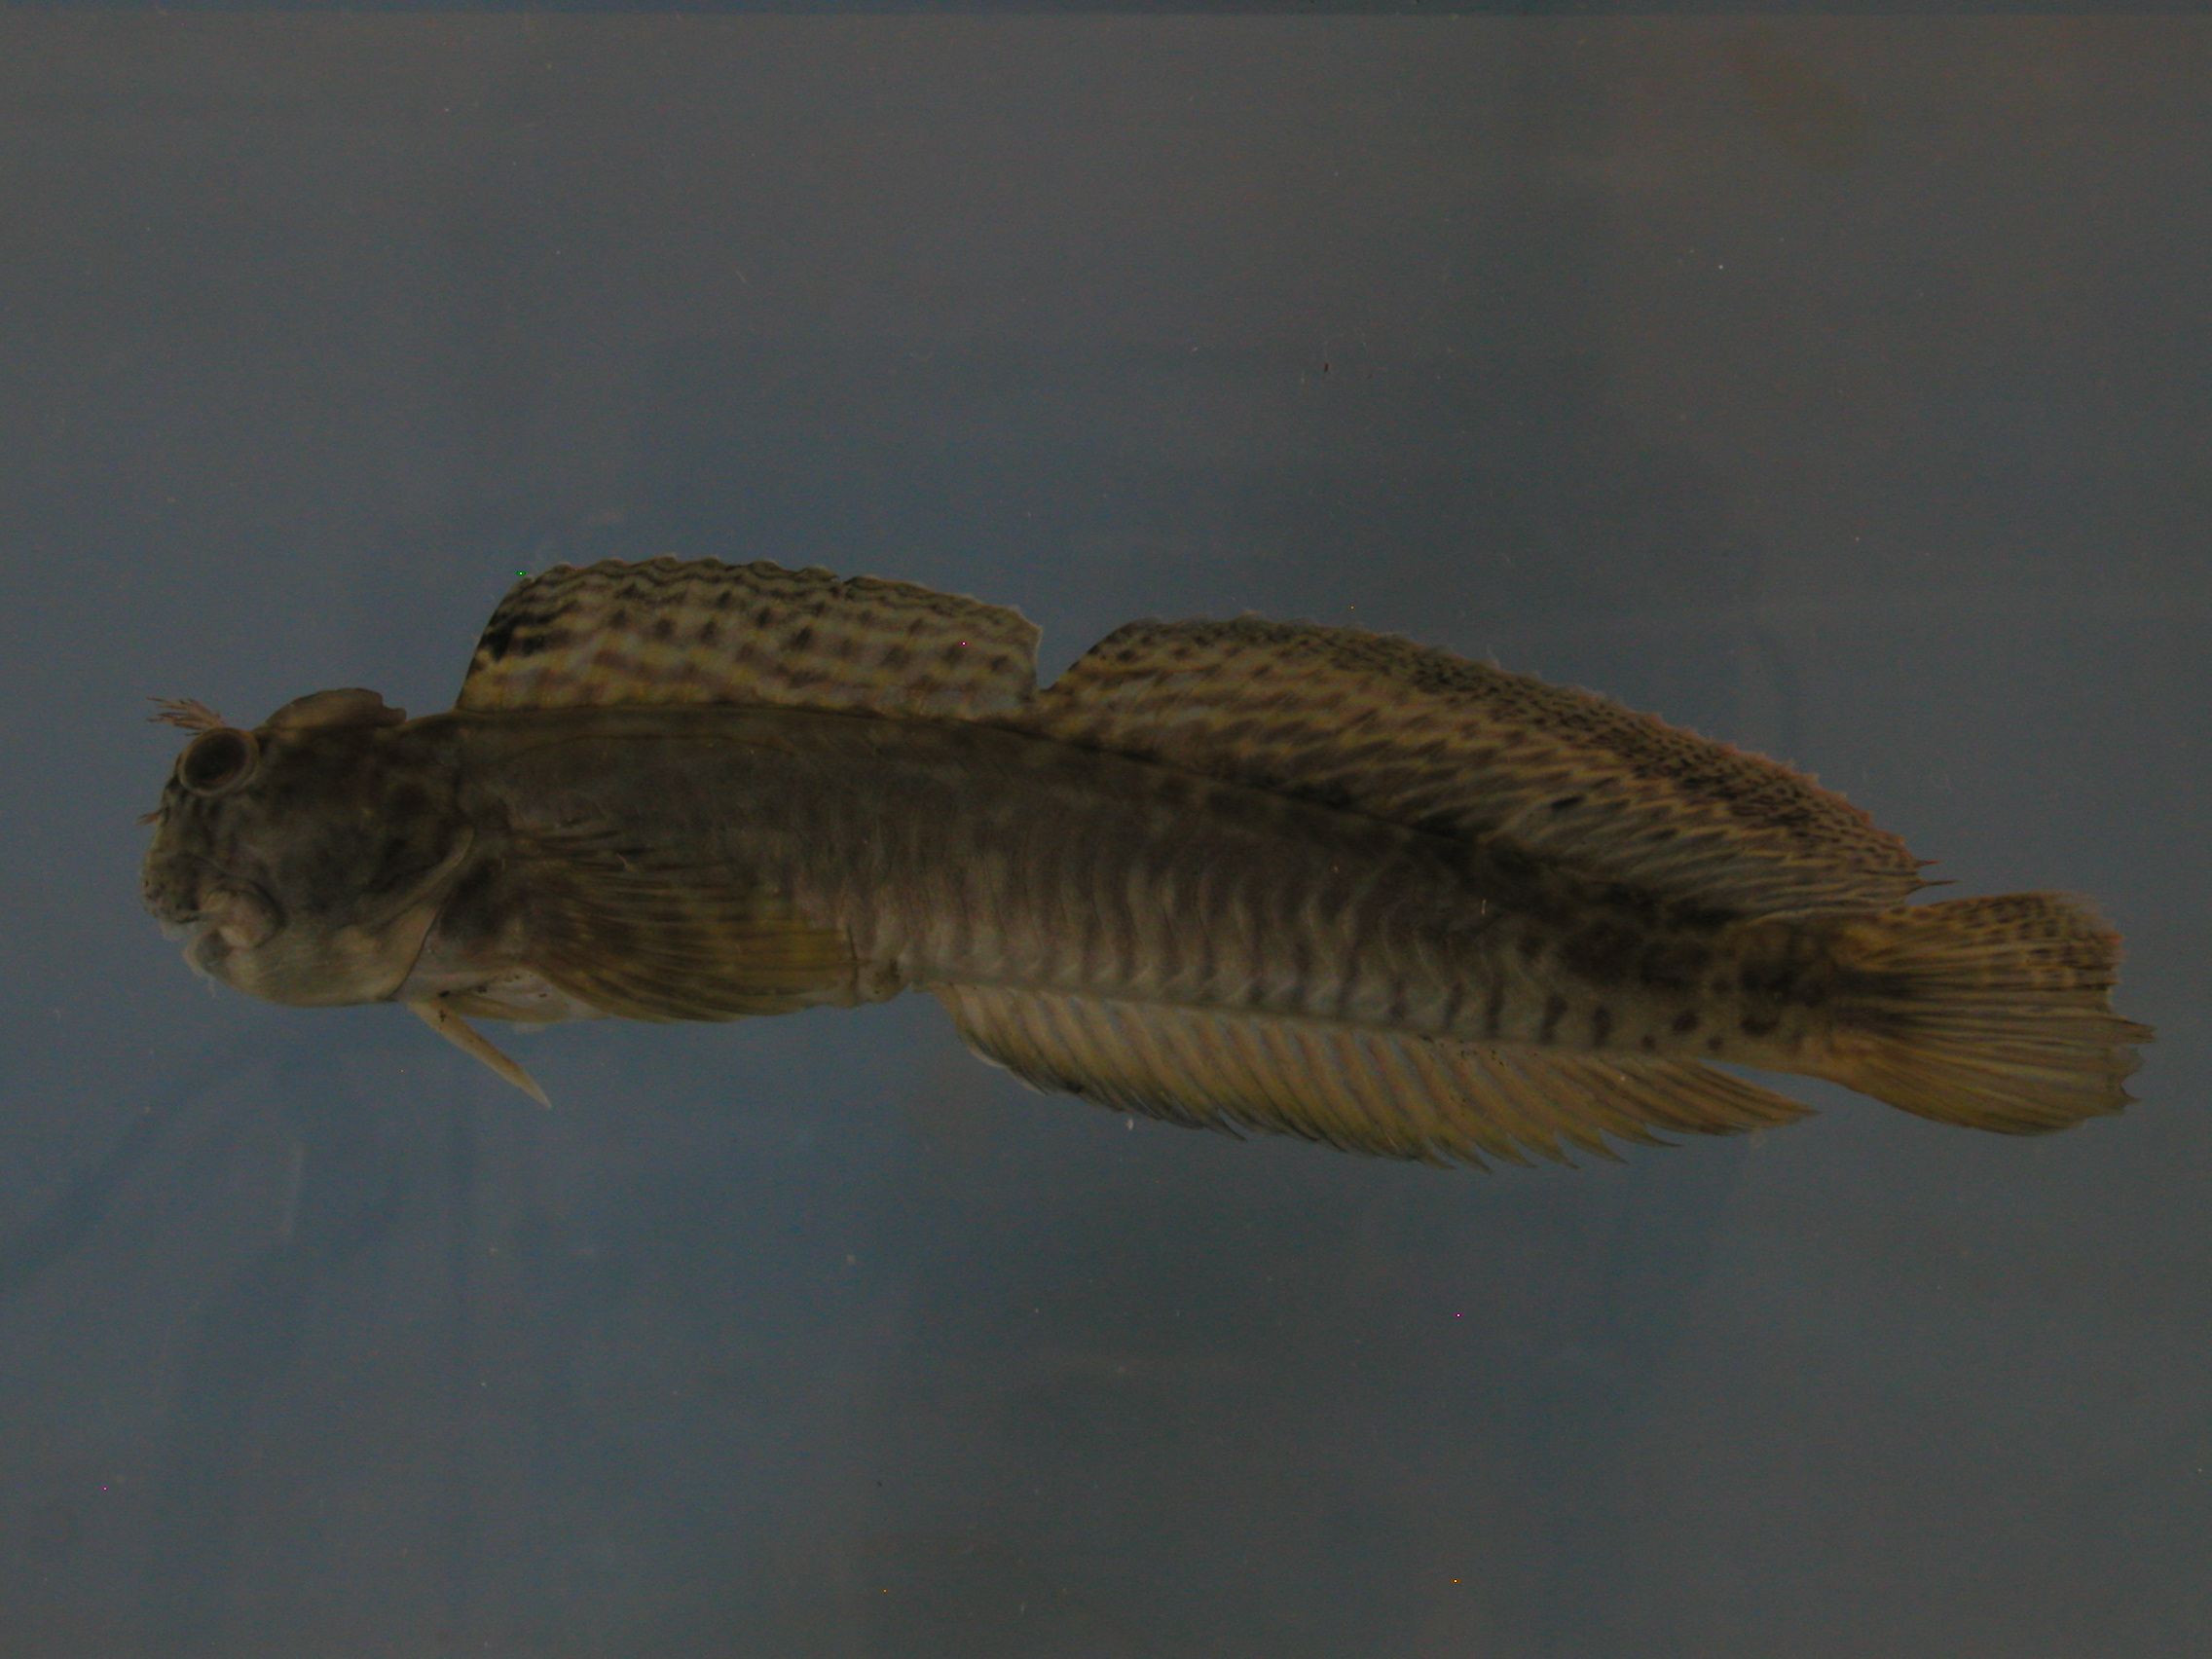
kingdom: Animalia
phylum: Chordata
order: Perciformes
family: Blenniidae
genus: Istiblennius
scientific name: Istiblennius dussumieri
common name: Dussumier's rockskipper
